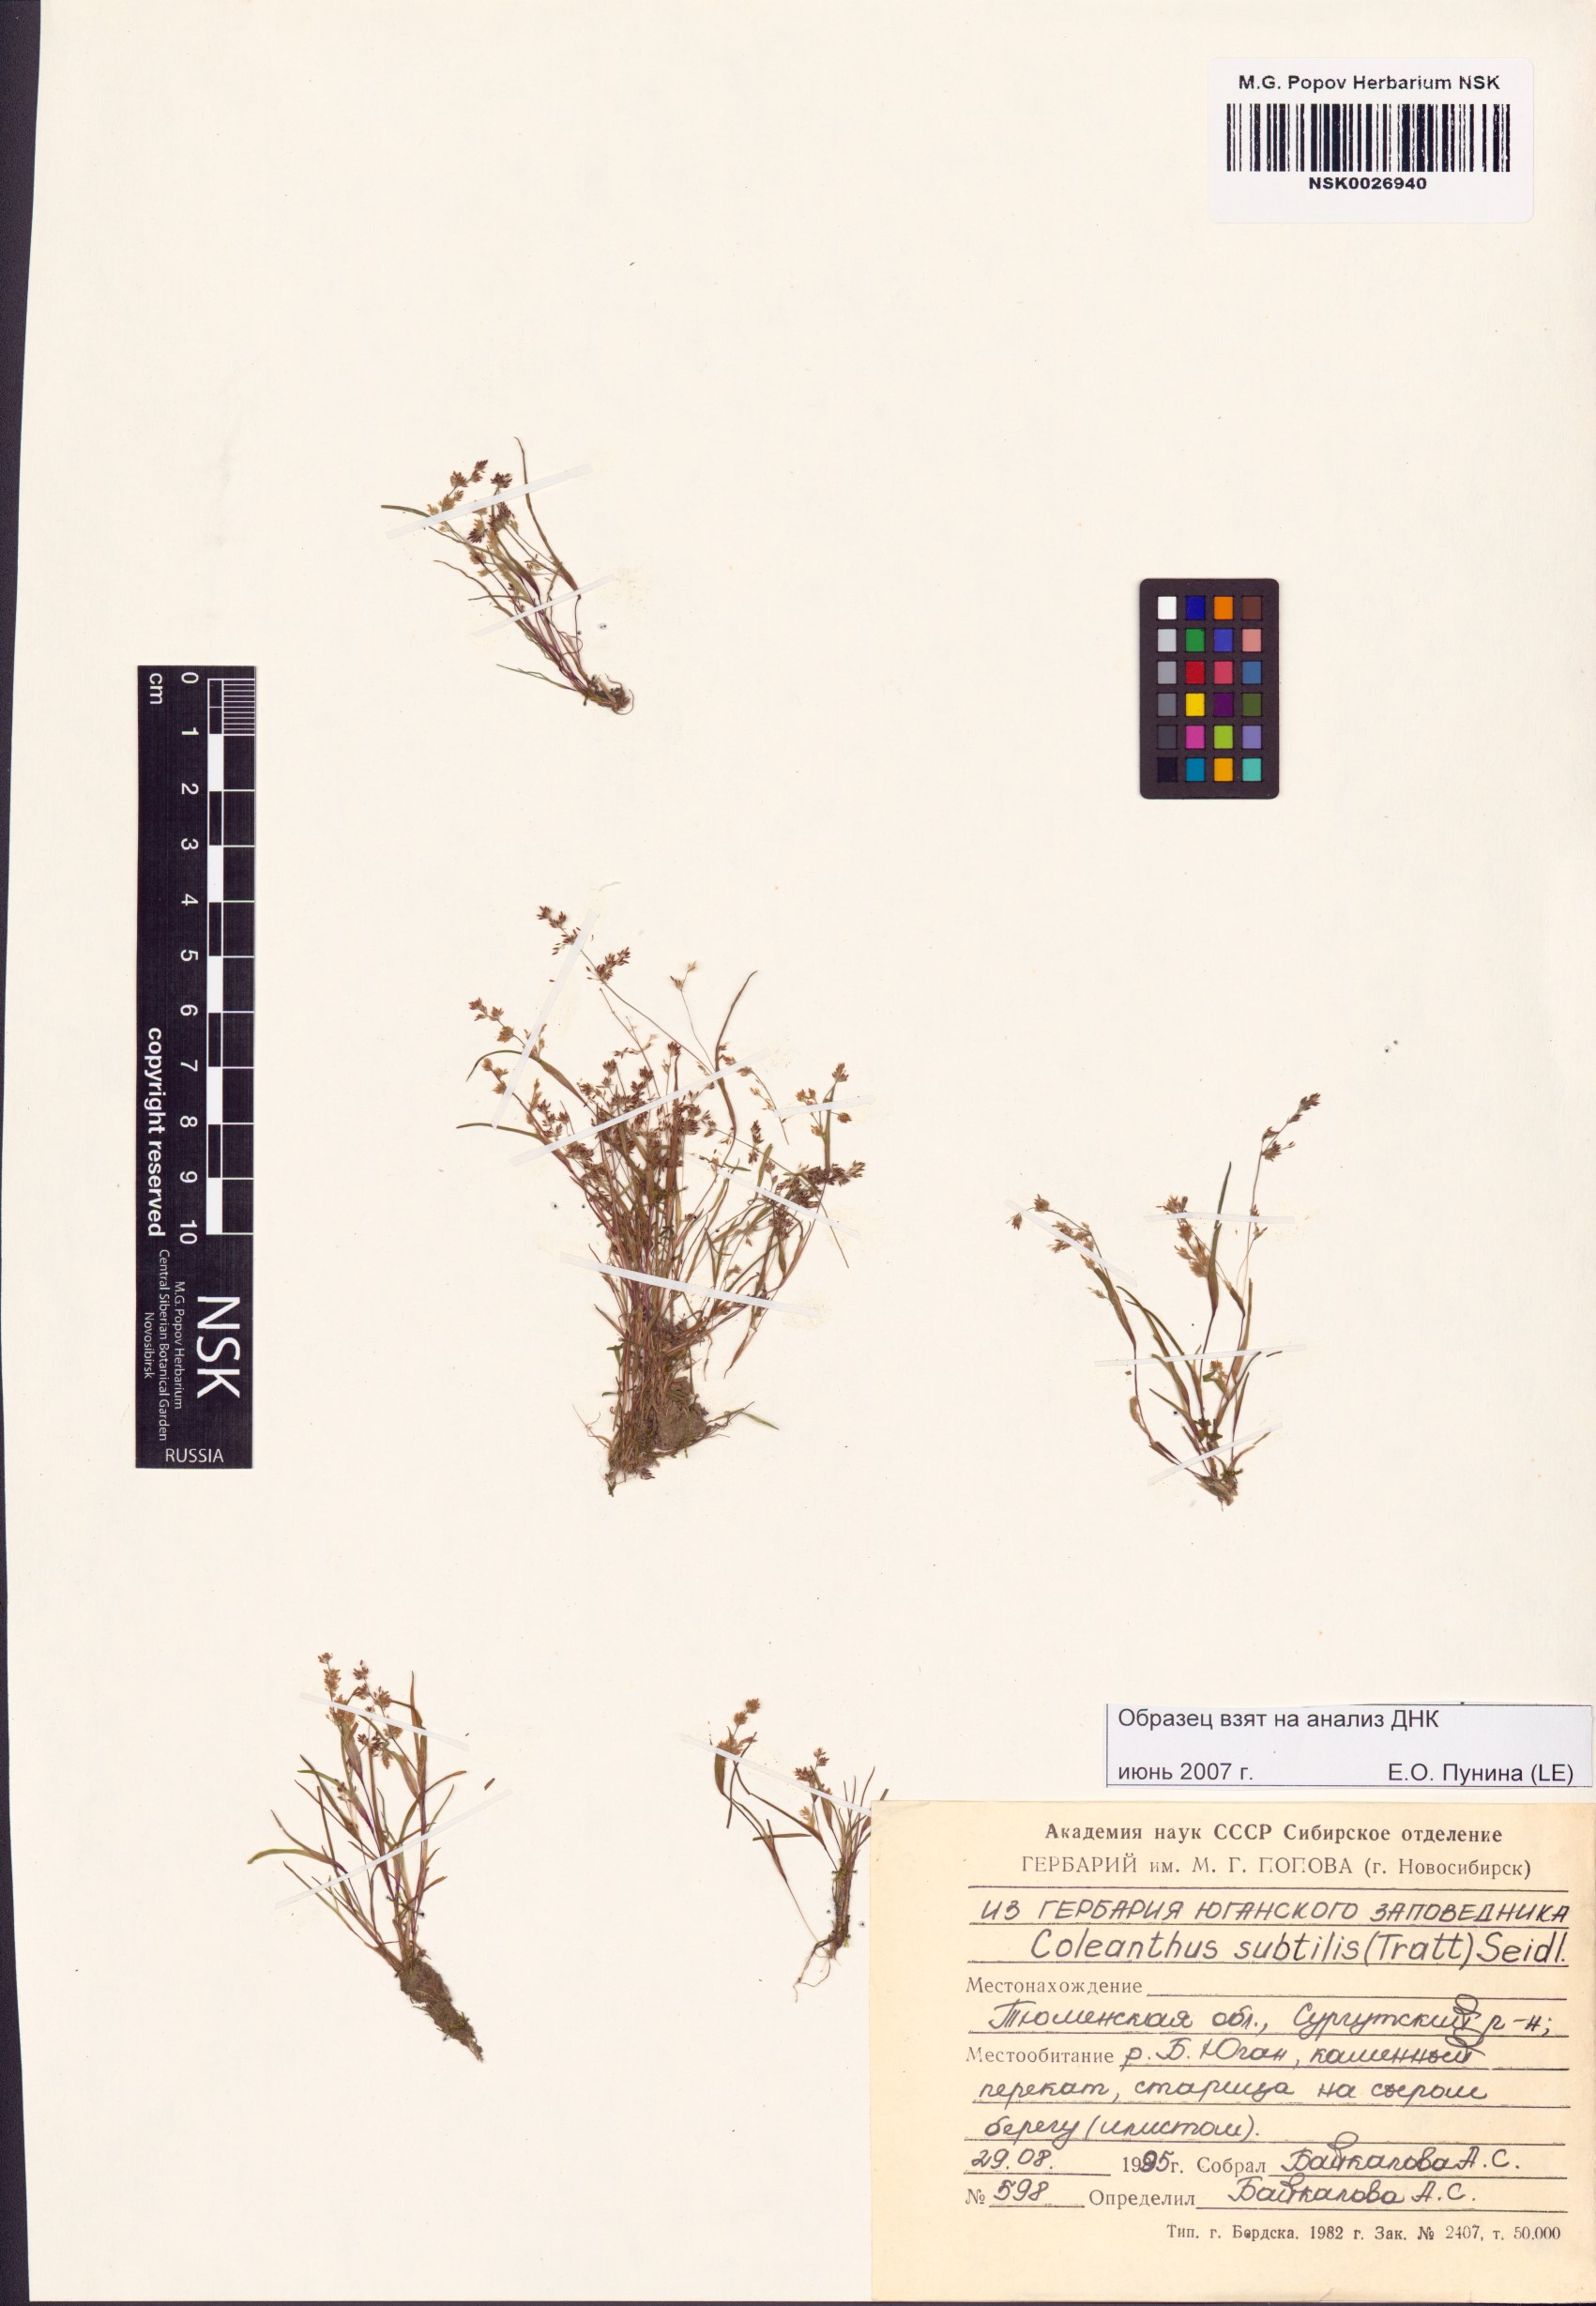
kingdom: Plantae
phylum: Tracheophyta
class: Liliopsida
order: Poales
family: Poaceae
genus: Coleanthus
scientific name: Coleanthus subtilis
